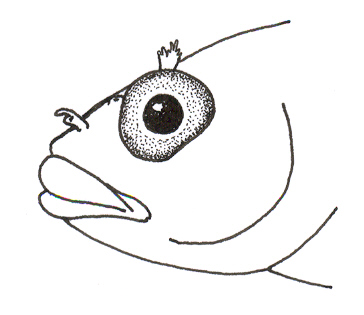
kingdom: Animalia
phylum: Chordata
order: Perciformes
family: Clinidae
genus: Climacoporus
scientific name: Climacoporus navalis
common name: Fleet klipfish
